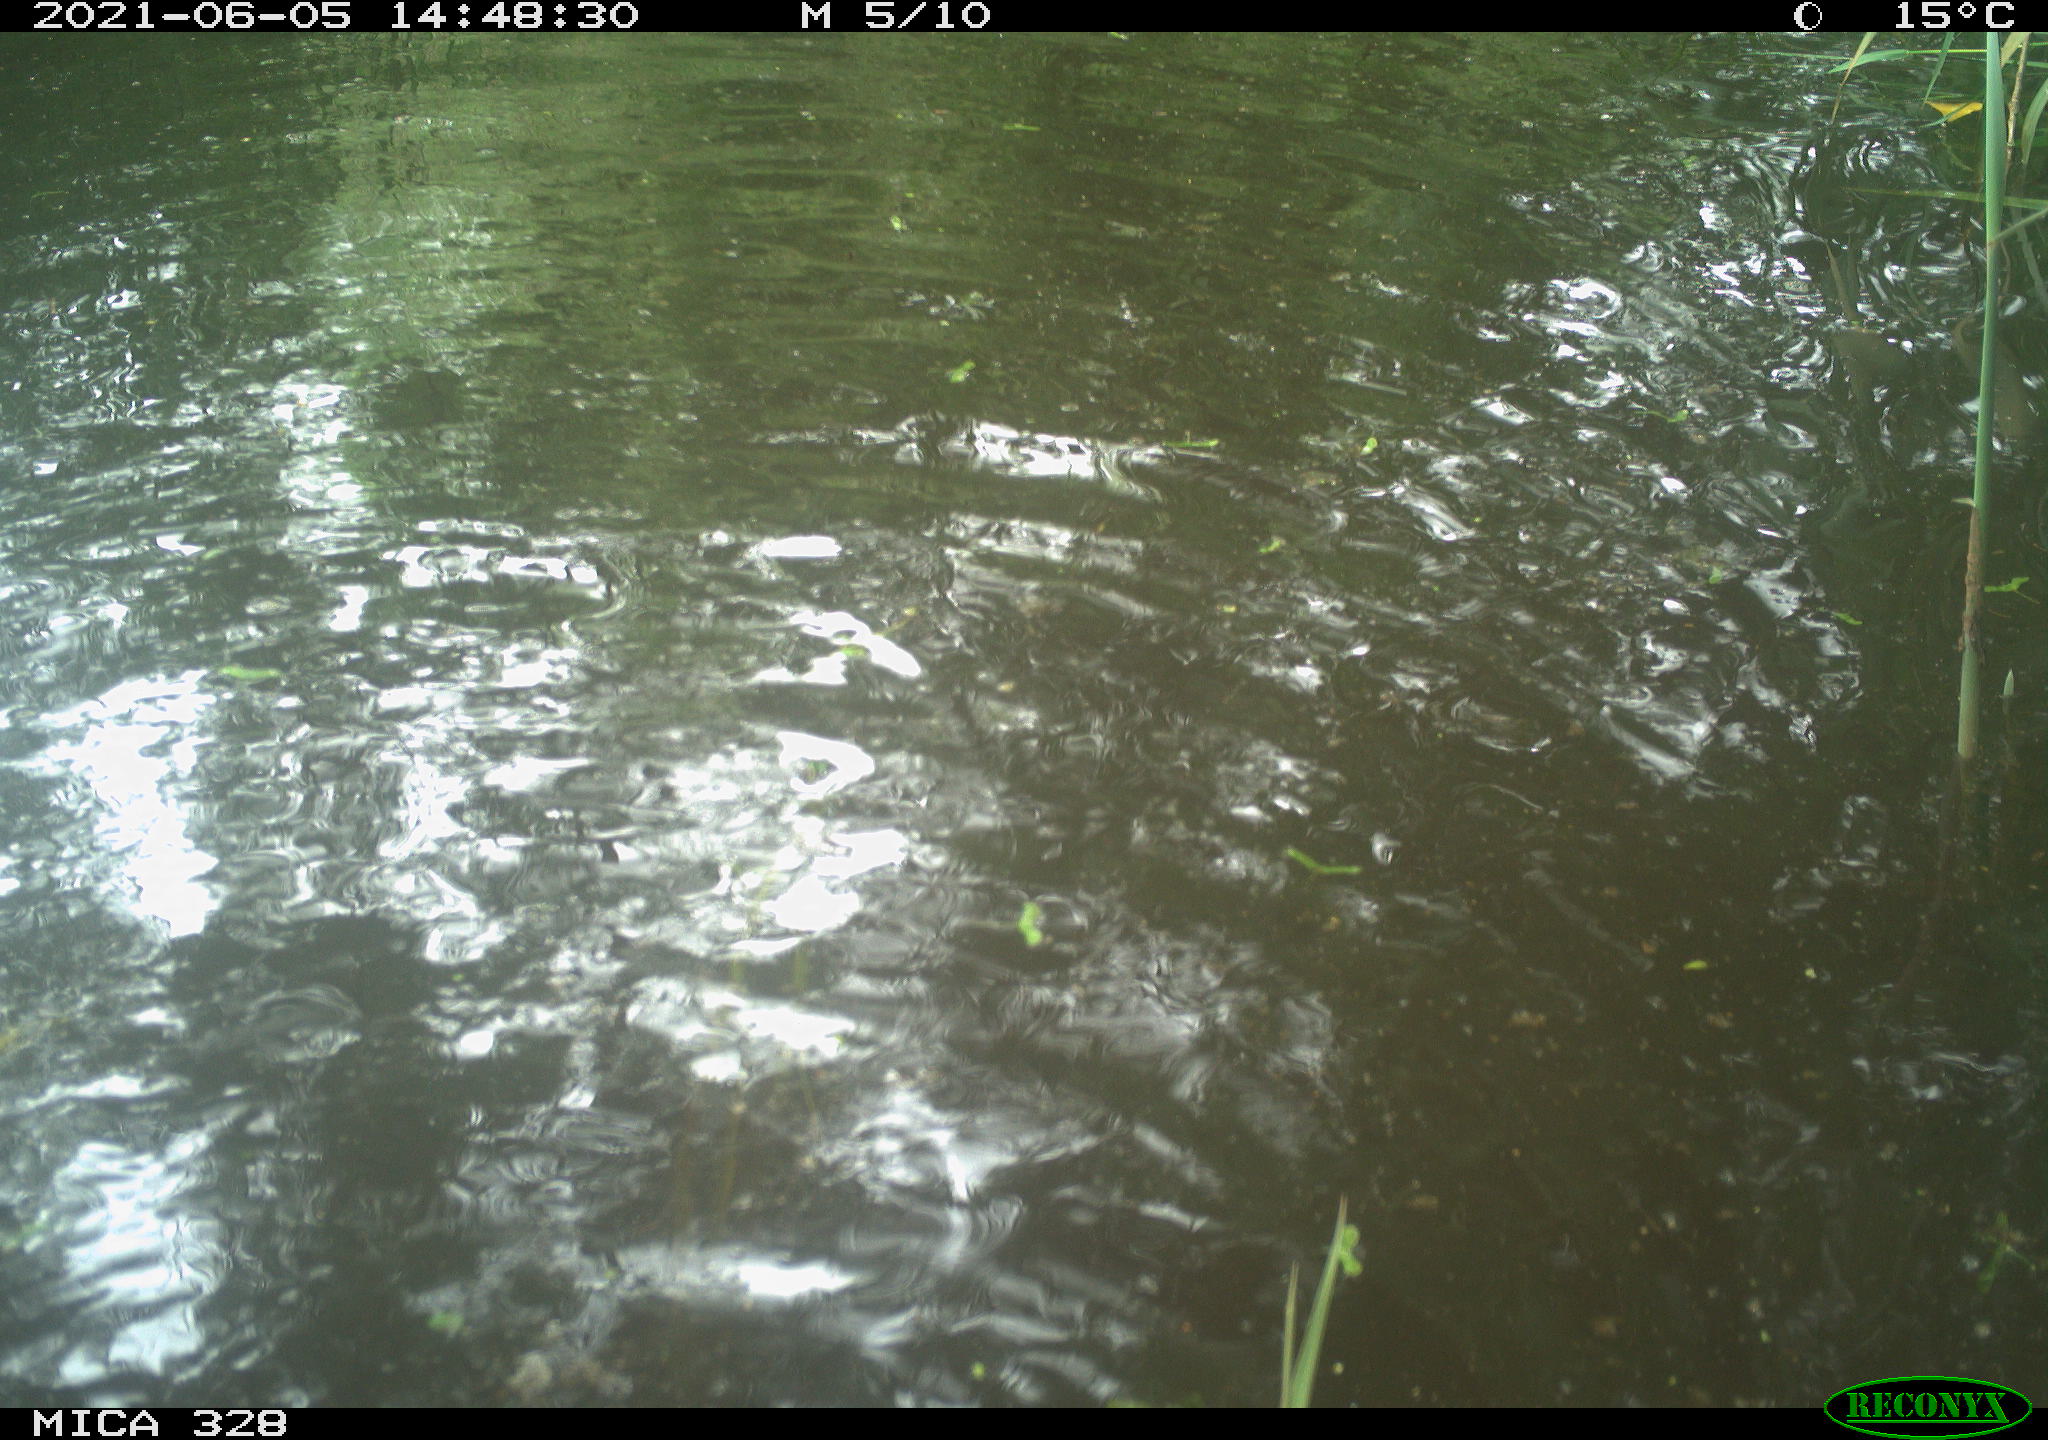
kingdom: Animalia
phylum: Chordata
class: Mammalia
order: Rodentia
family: Cricetidae
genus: Ondatra
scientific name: Ondatra zibethicus
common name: Muskrat
